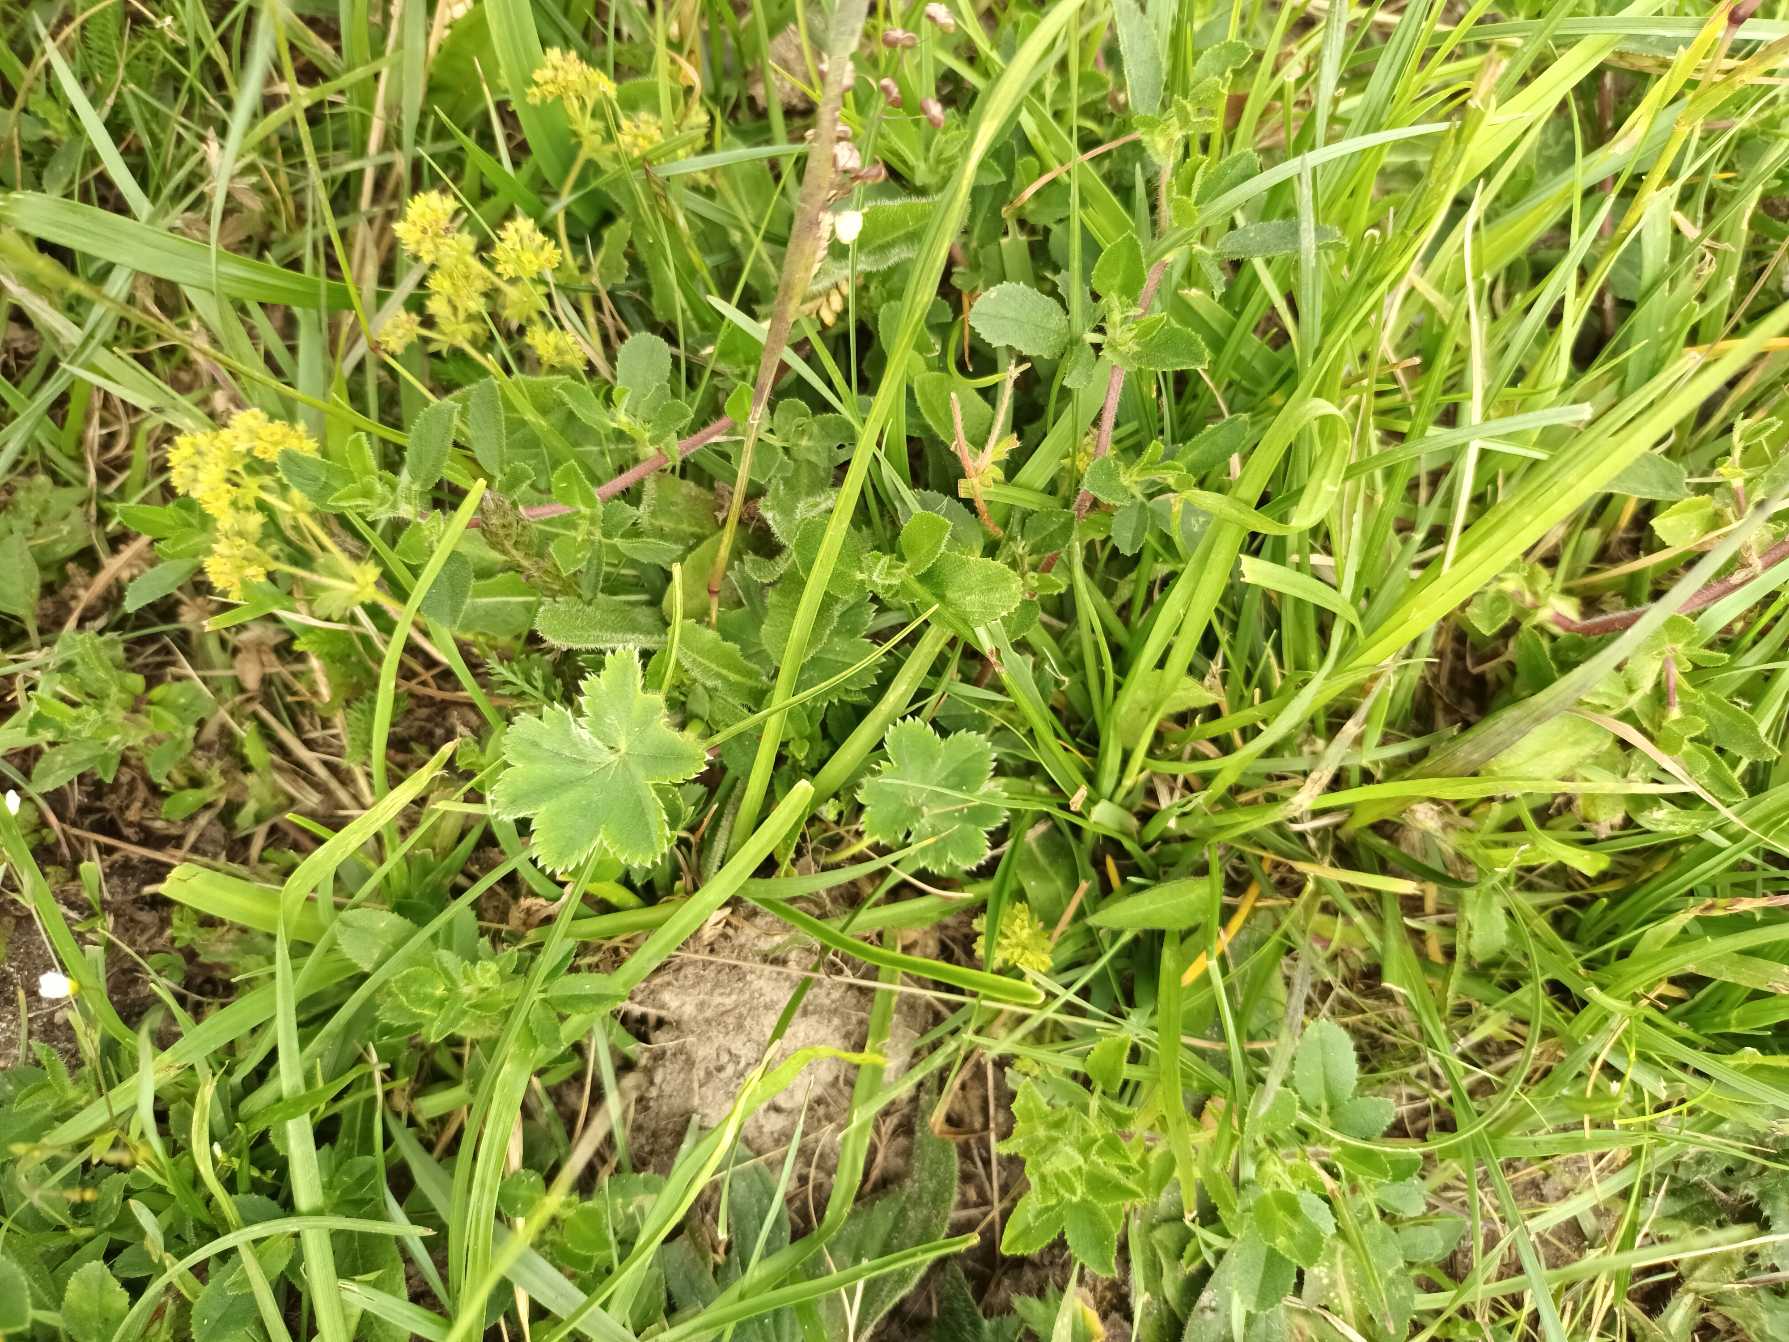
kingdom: Plantae
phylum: Tracheophyta
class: Magnoliopsida
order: Rosales
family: Rosaceae
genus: Alchemilla
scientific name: Alchemilla glaucescens
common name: Blågrøn løvefod
